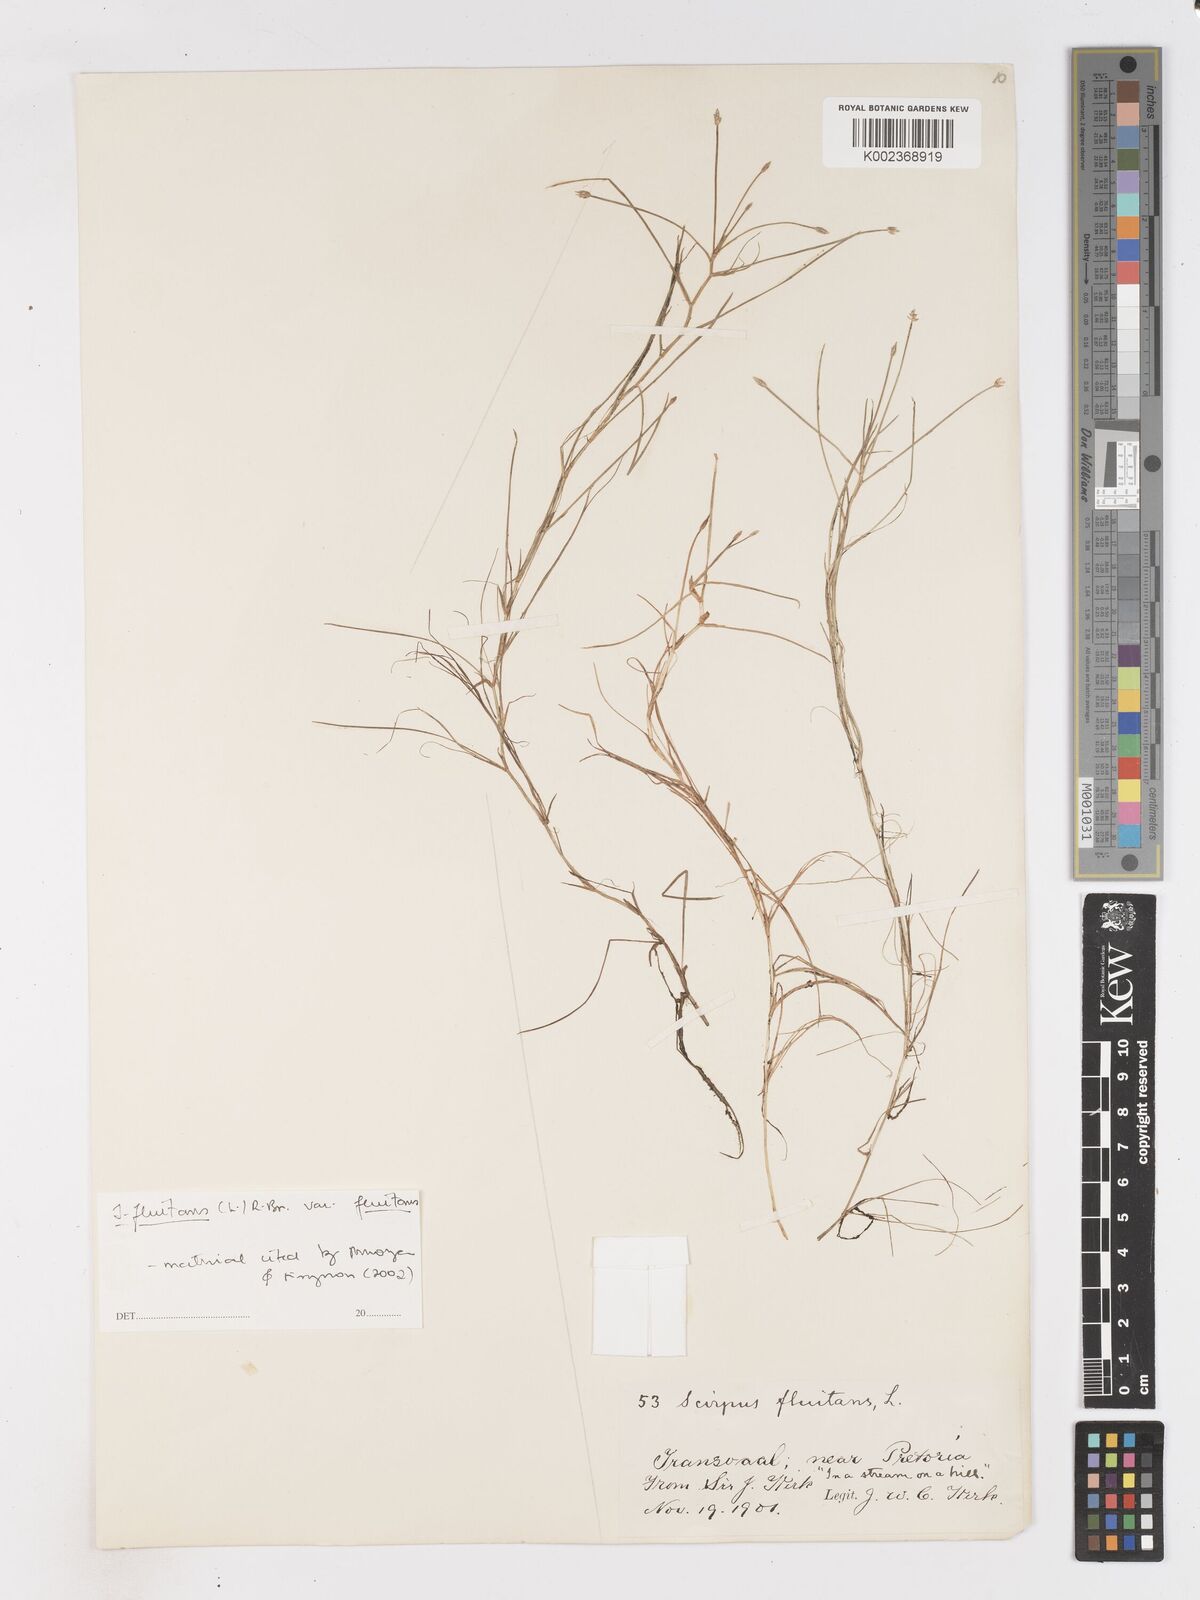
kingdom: Plantae
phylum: Tracheophyta
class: Liliopsida
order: Poales
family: Cyperaceae
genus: Isolepis
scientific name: Isolepis fluitans
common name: Floating club-rush
